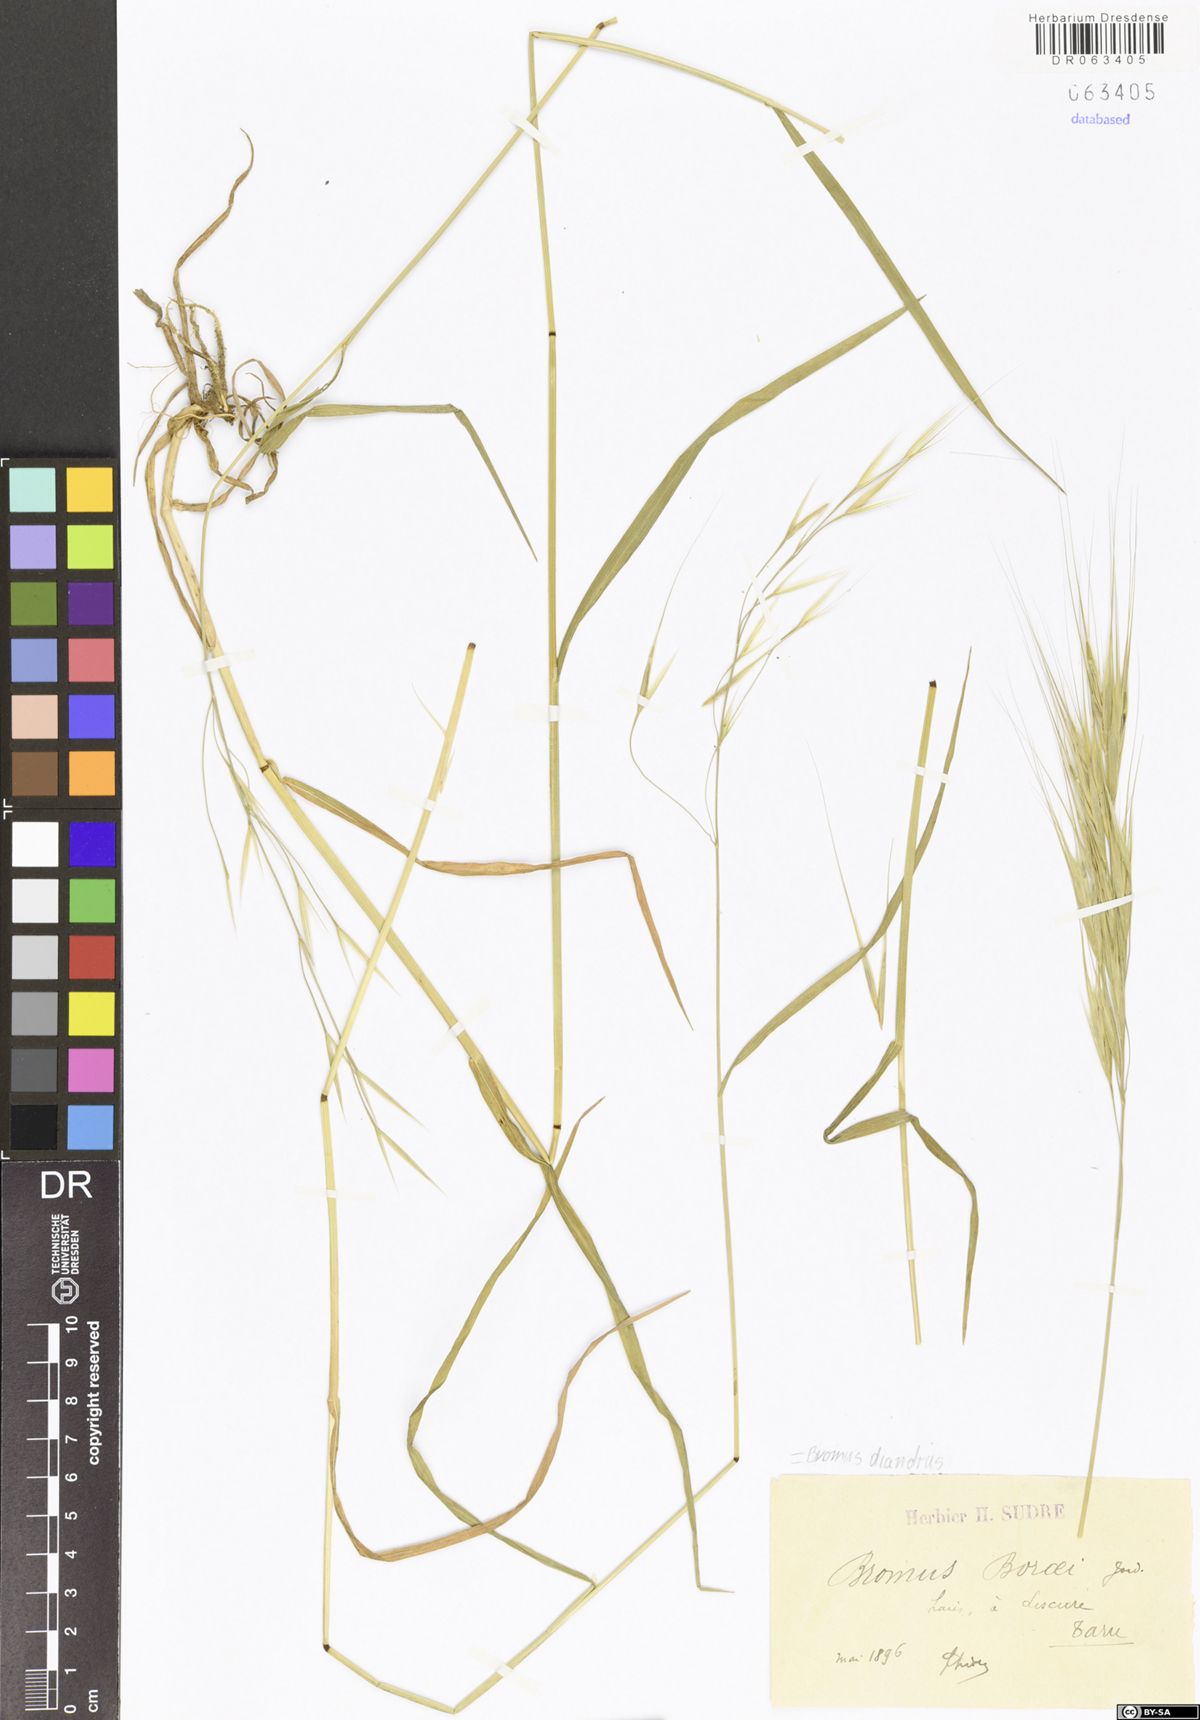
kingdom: Plantae
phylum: Tracheophyta
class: Liliopsida
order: Poales
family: Poaceae
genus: Bromus
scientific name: Bromus diandrus
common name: Ripgut brome
